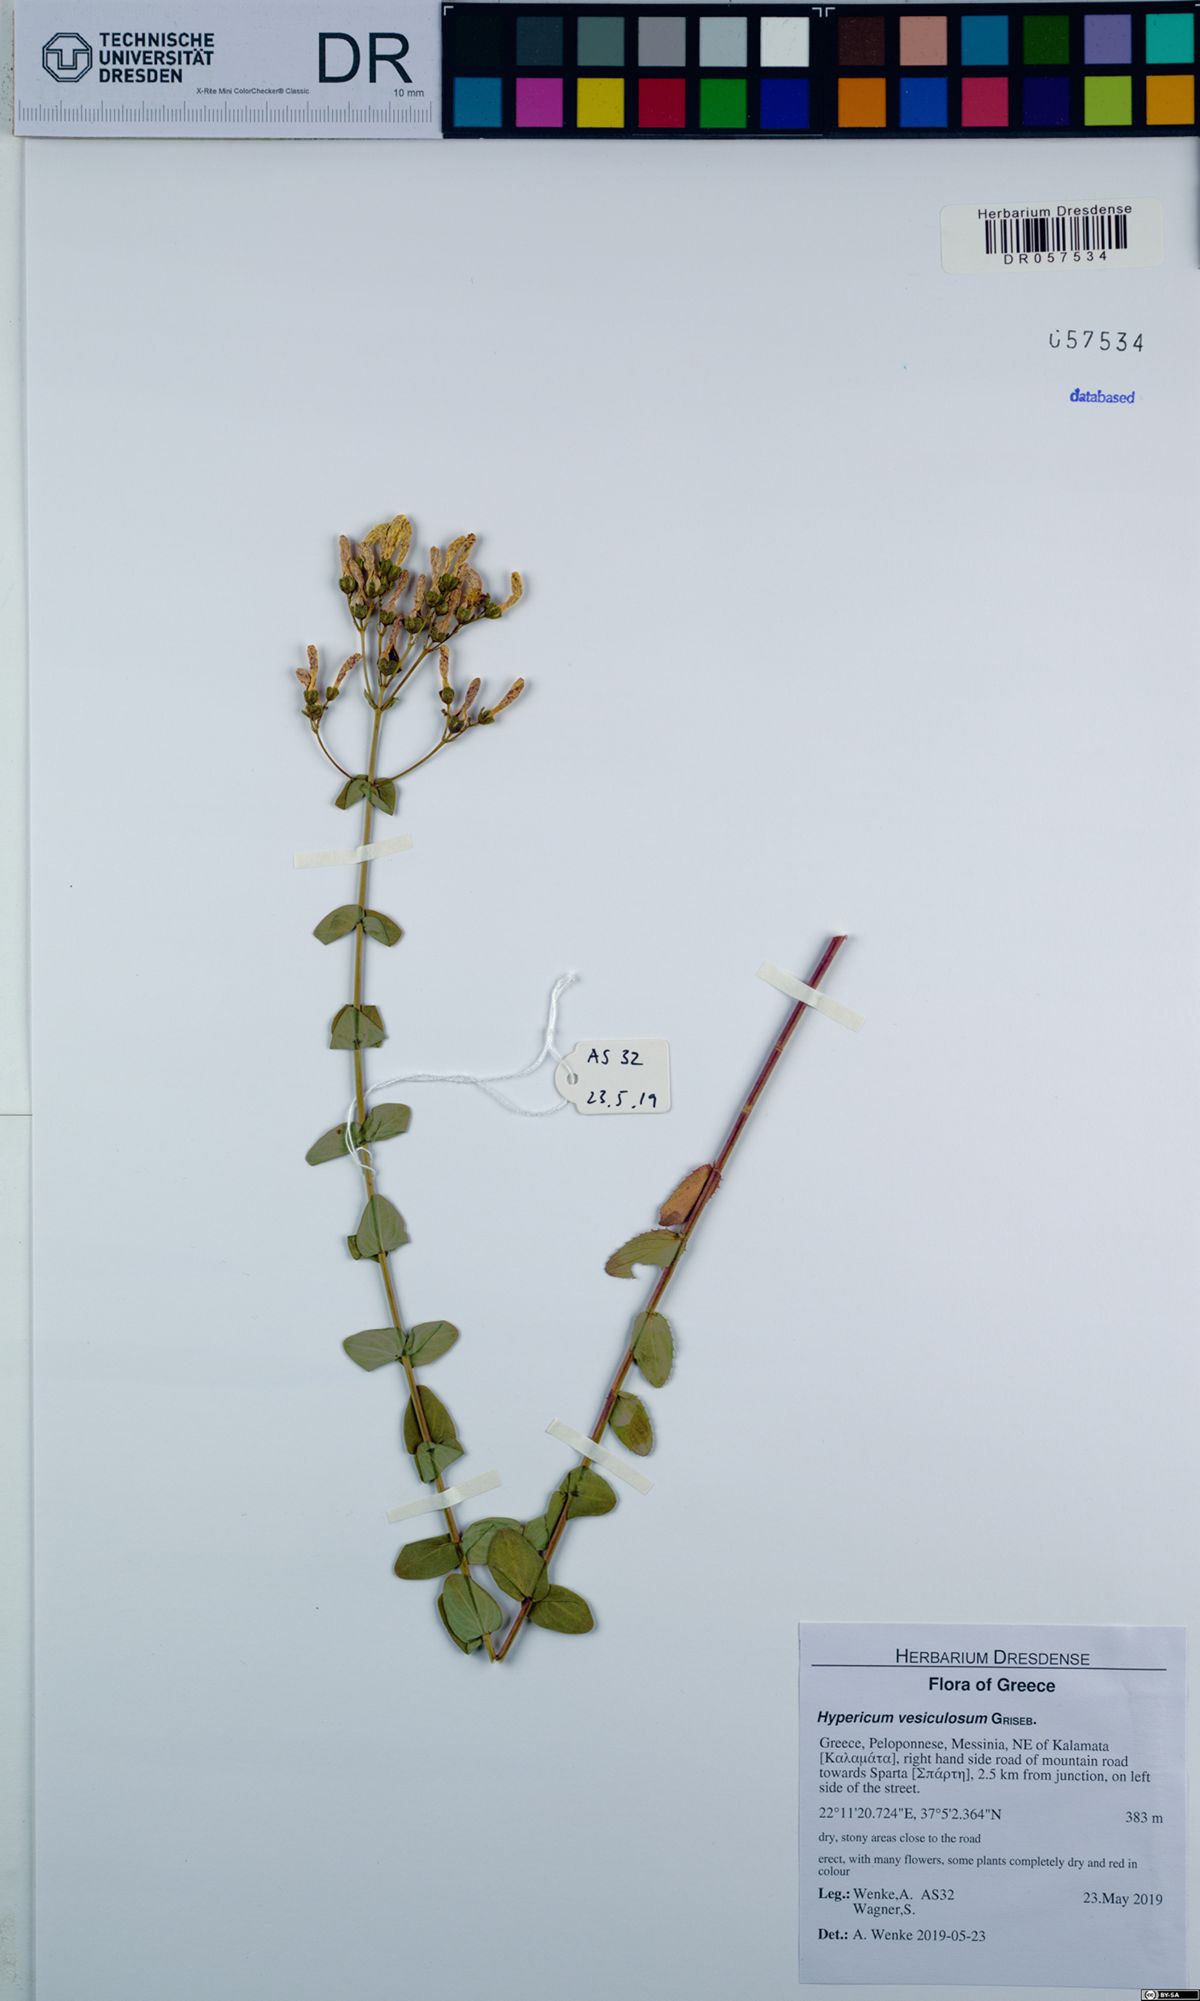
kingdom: Plantae
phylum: Tracheophyta
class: Magnoliopsida
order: Malpighiales
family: Hypericaceae
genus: Hypericum
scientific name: Hypericum vesiculosum
